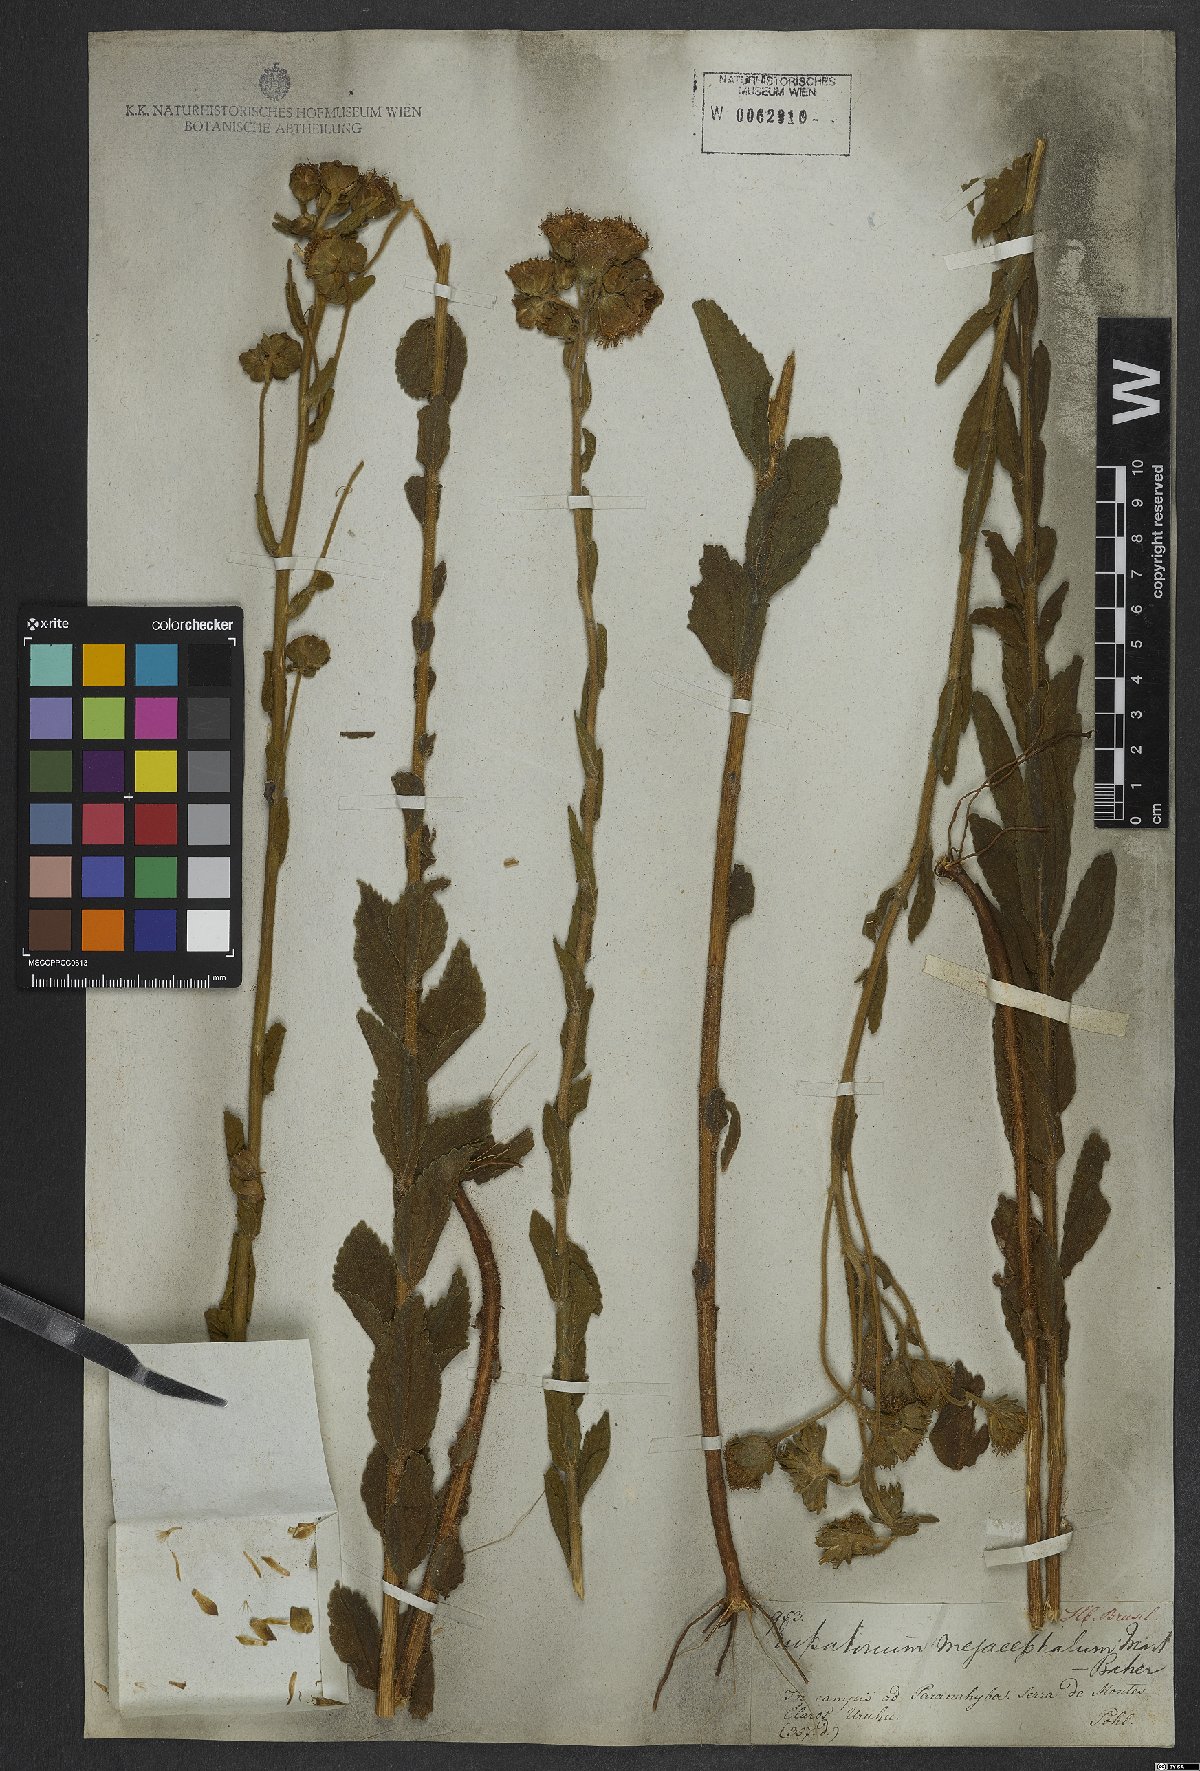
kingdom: Plantae
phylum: Tracheophyta
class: Magnoliopsida
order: Asterales
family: Asteraceae
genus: Campuloclinium
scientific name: Campuloclinium megacephalum
